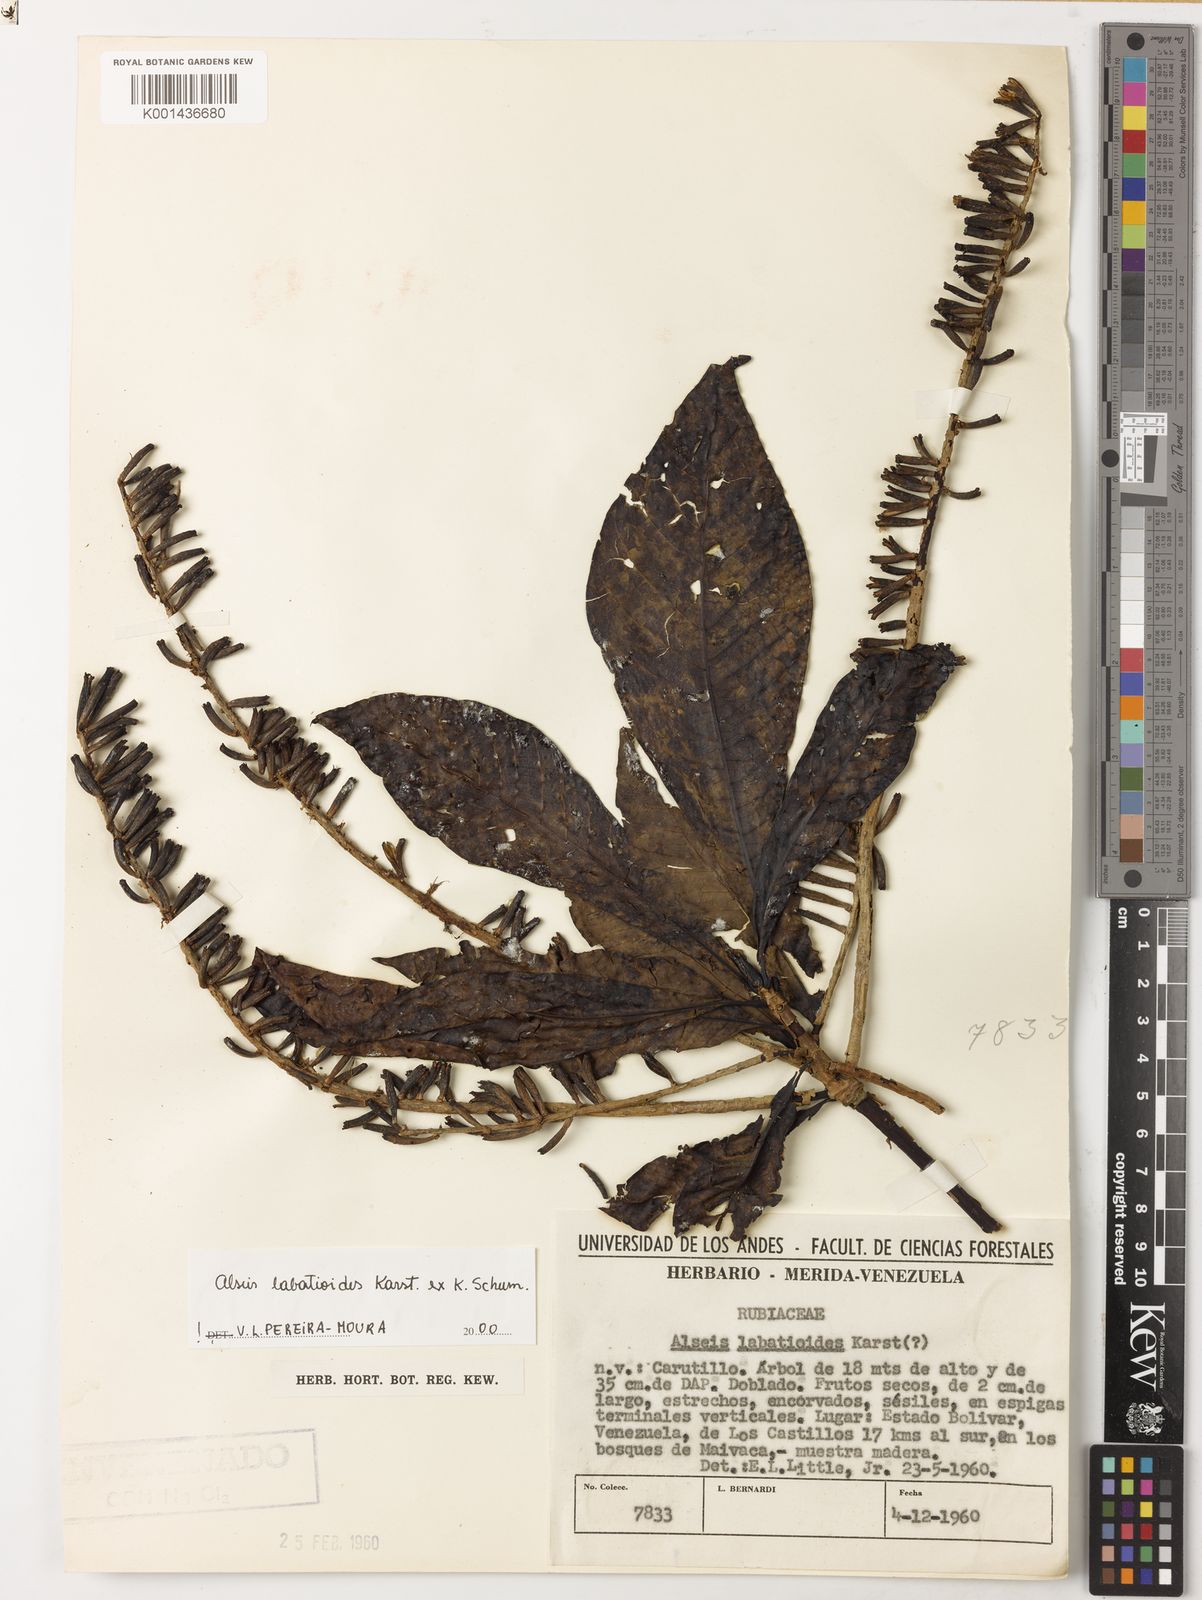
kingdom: Plantae
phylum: Tracheophyta
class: Magnoliopsida
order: Gentianales
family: Rubiaceae
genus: Alseis
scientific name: Alseis labatioides
